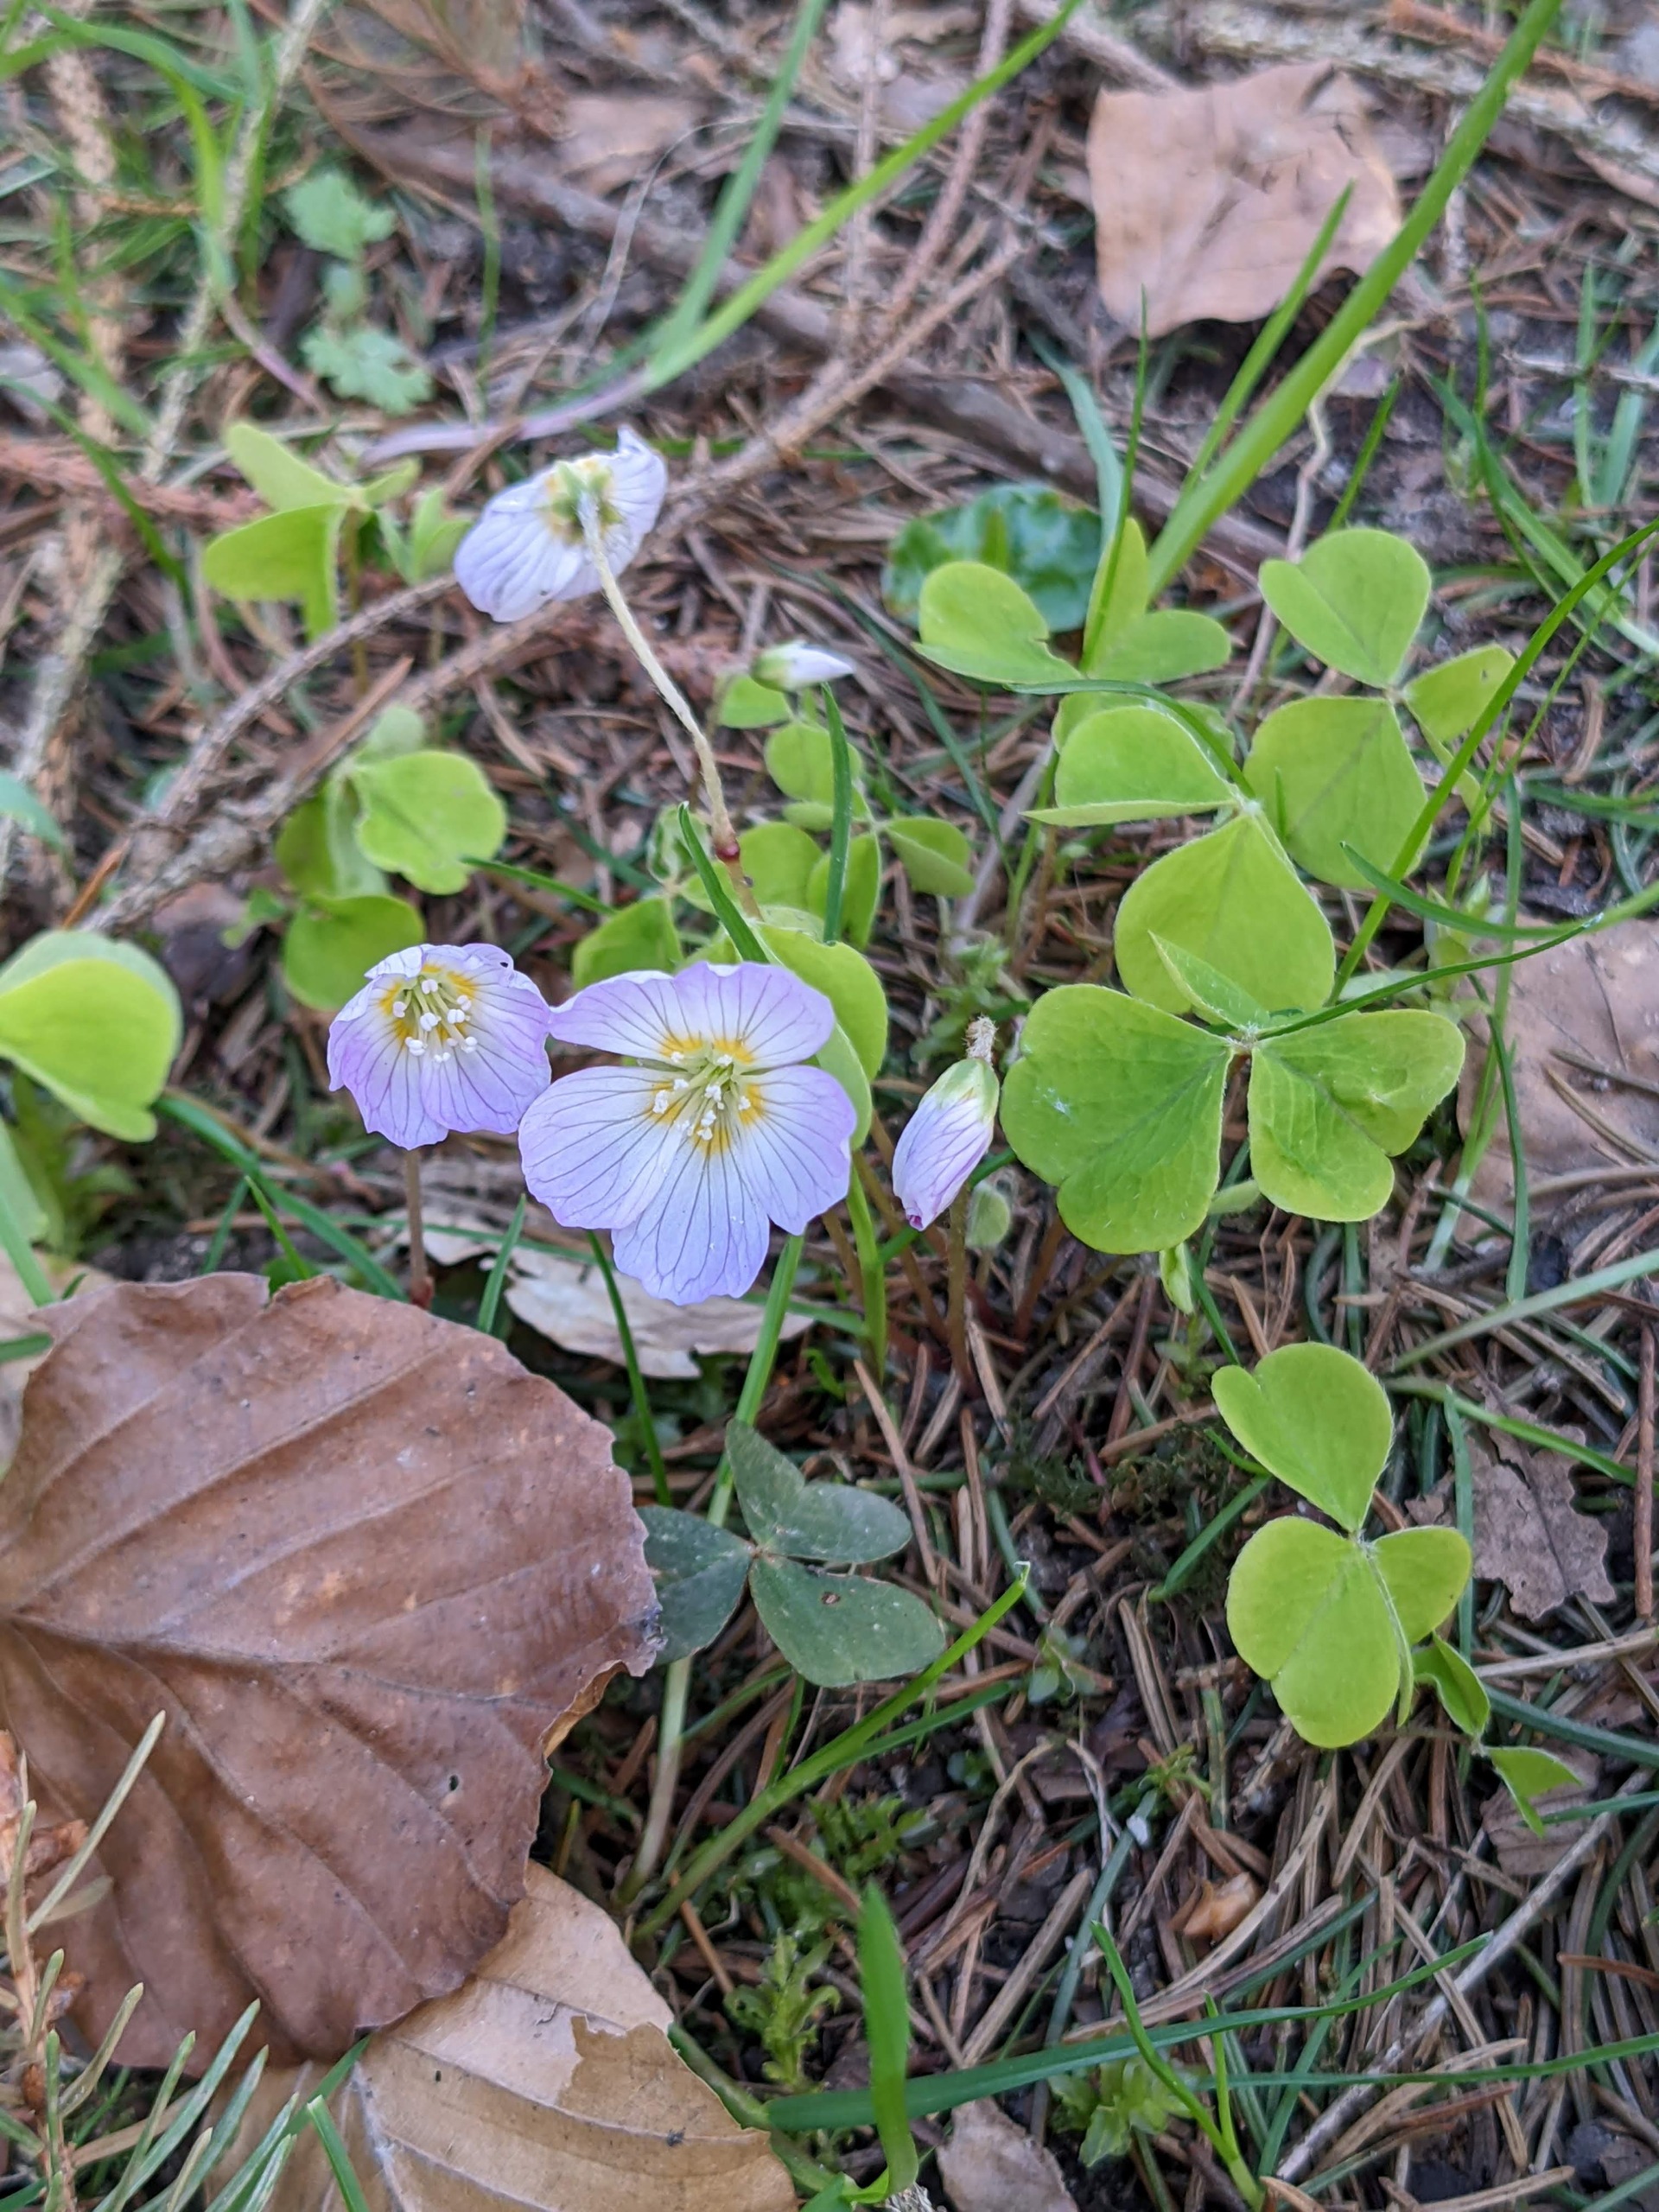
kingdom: Plantae
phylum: Tracheophyta
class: Magnoliopsida
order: Oxalidales
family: Oxalidaceae
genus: Oxalis
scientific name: Oxalis acetosella
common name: Skovsyre
